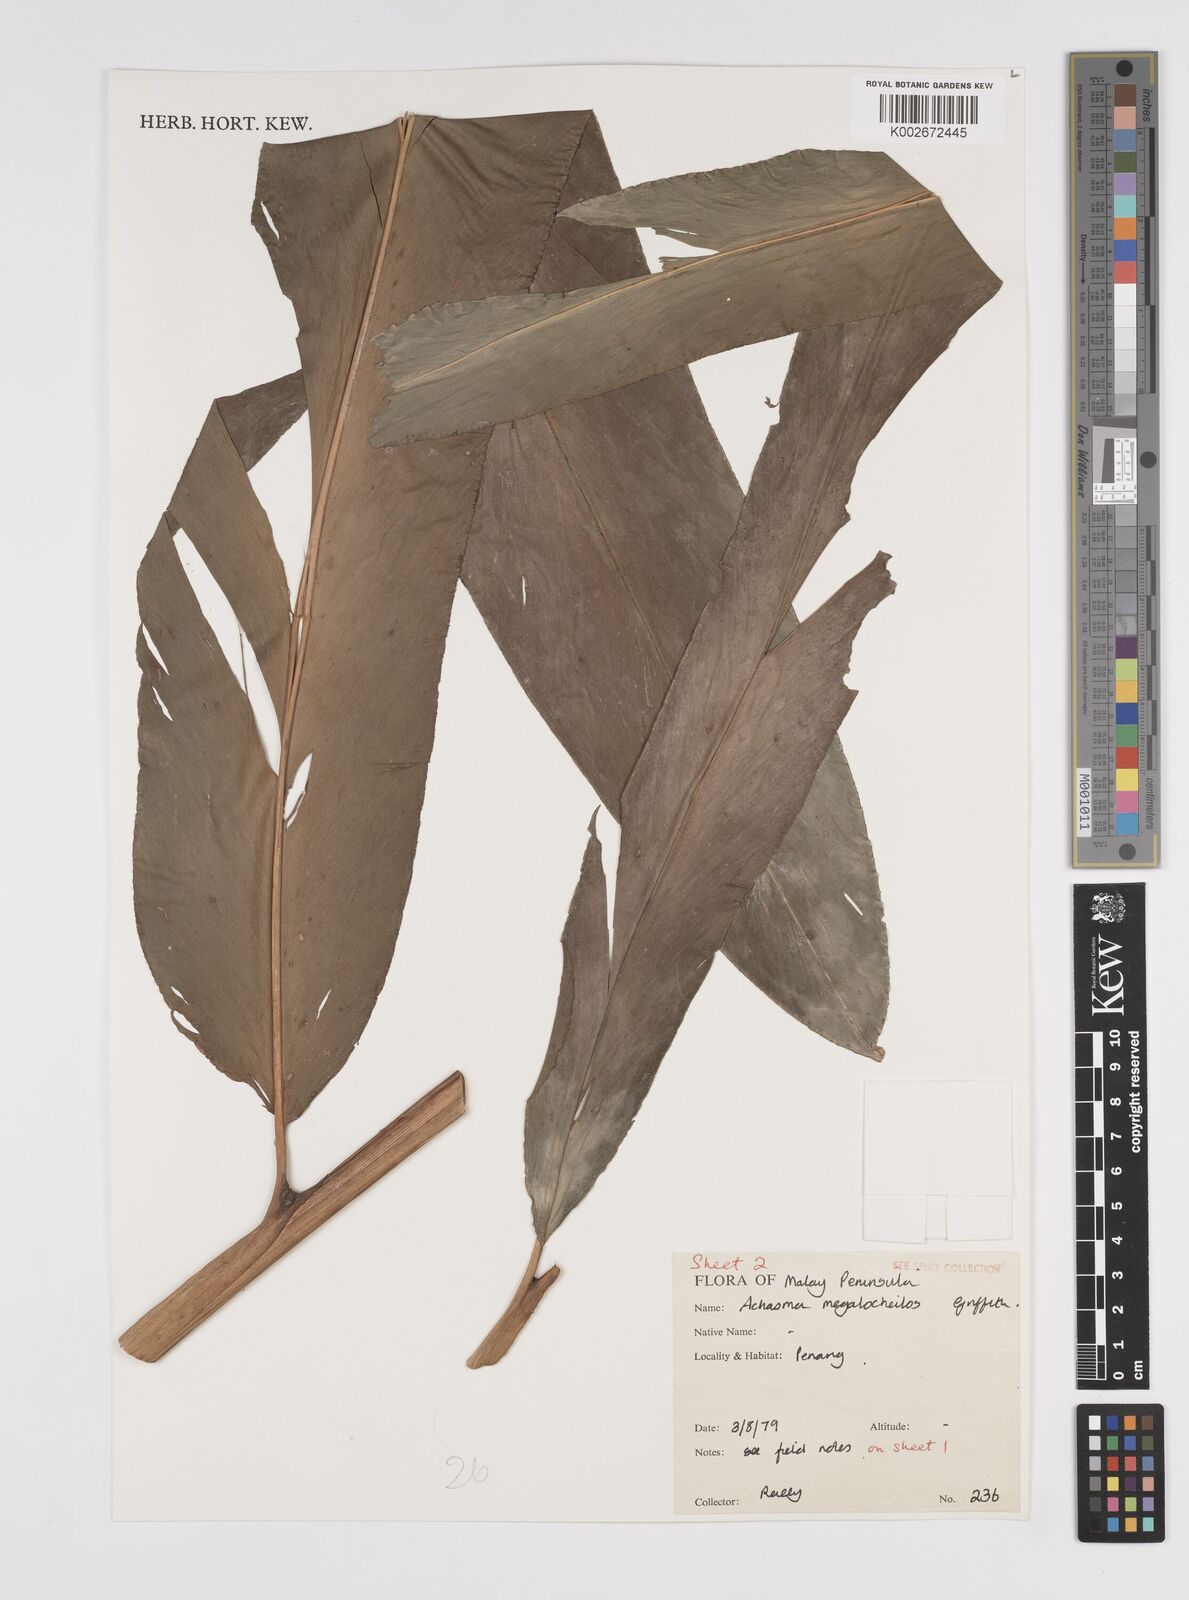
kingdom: Plantae
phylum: Tracheophyta
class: Liliopsida
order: Zingiberales
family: Zingiberaceae
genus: Etlingera
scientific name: Etlingera littoralis
